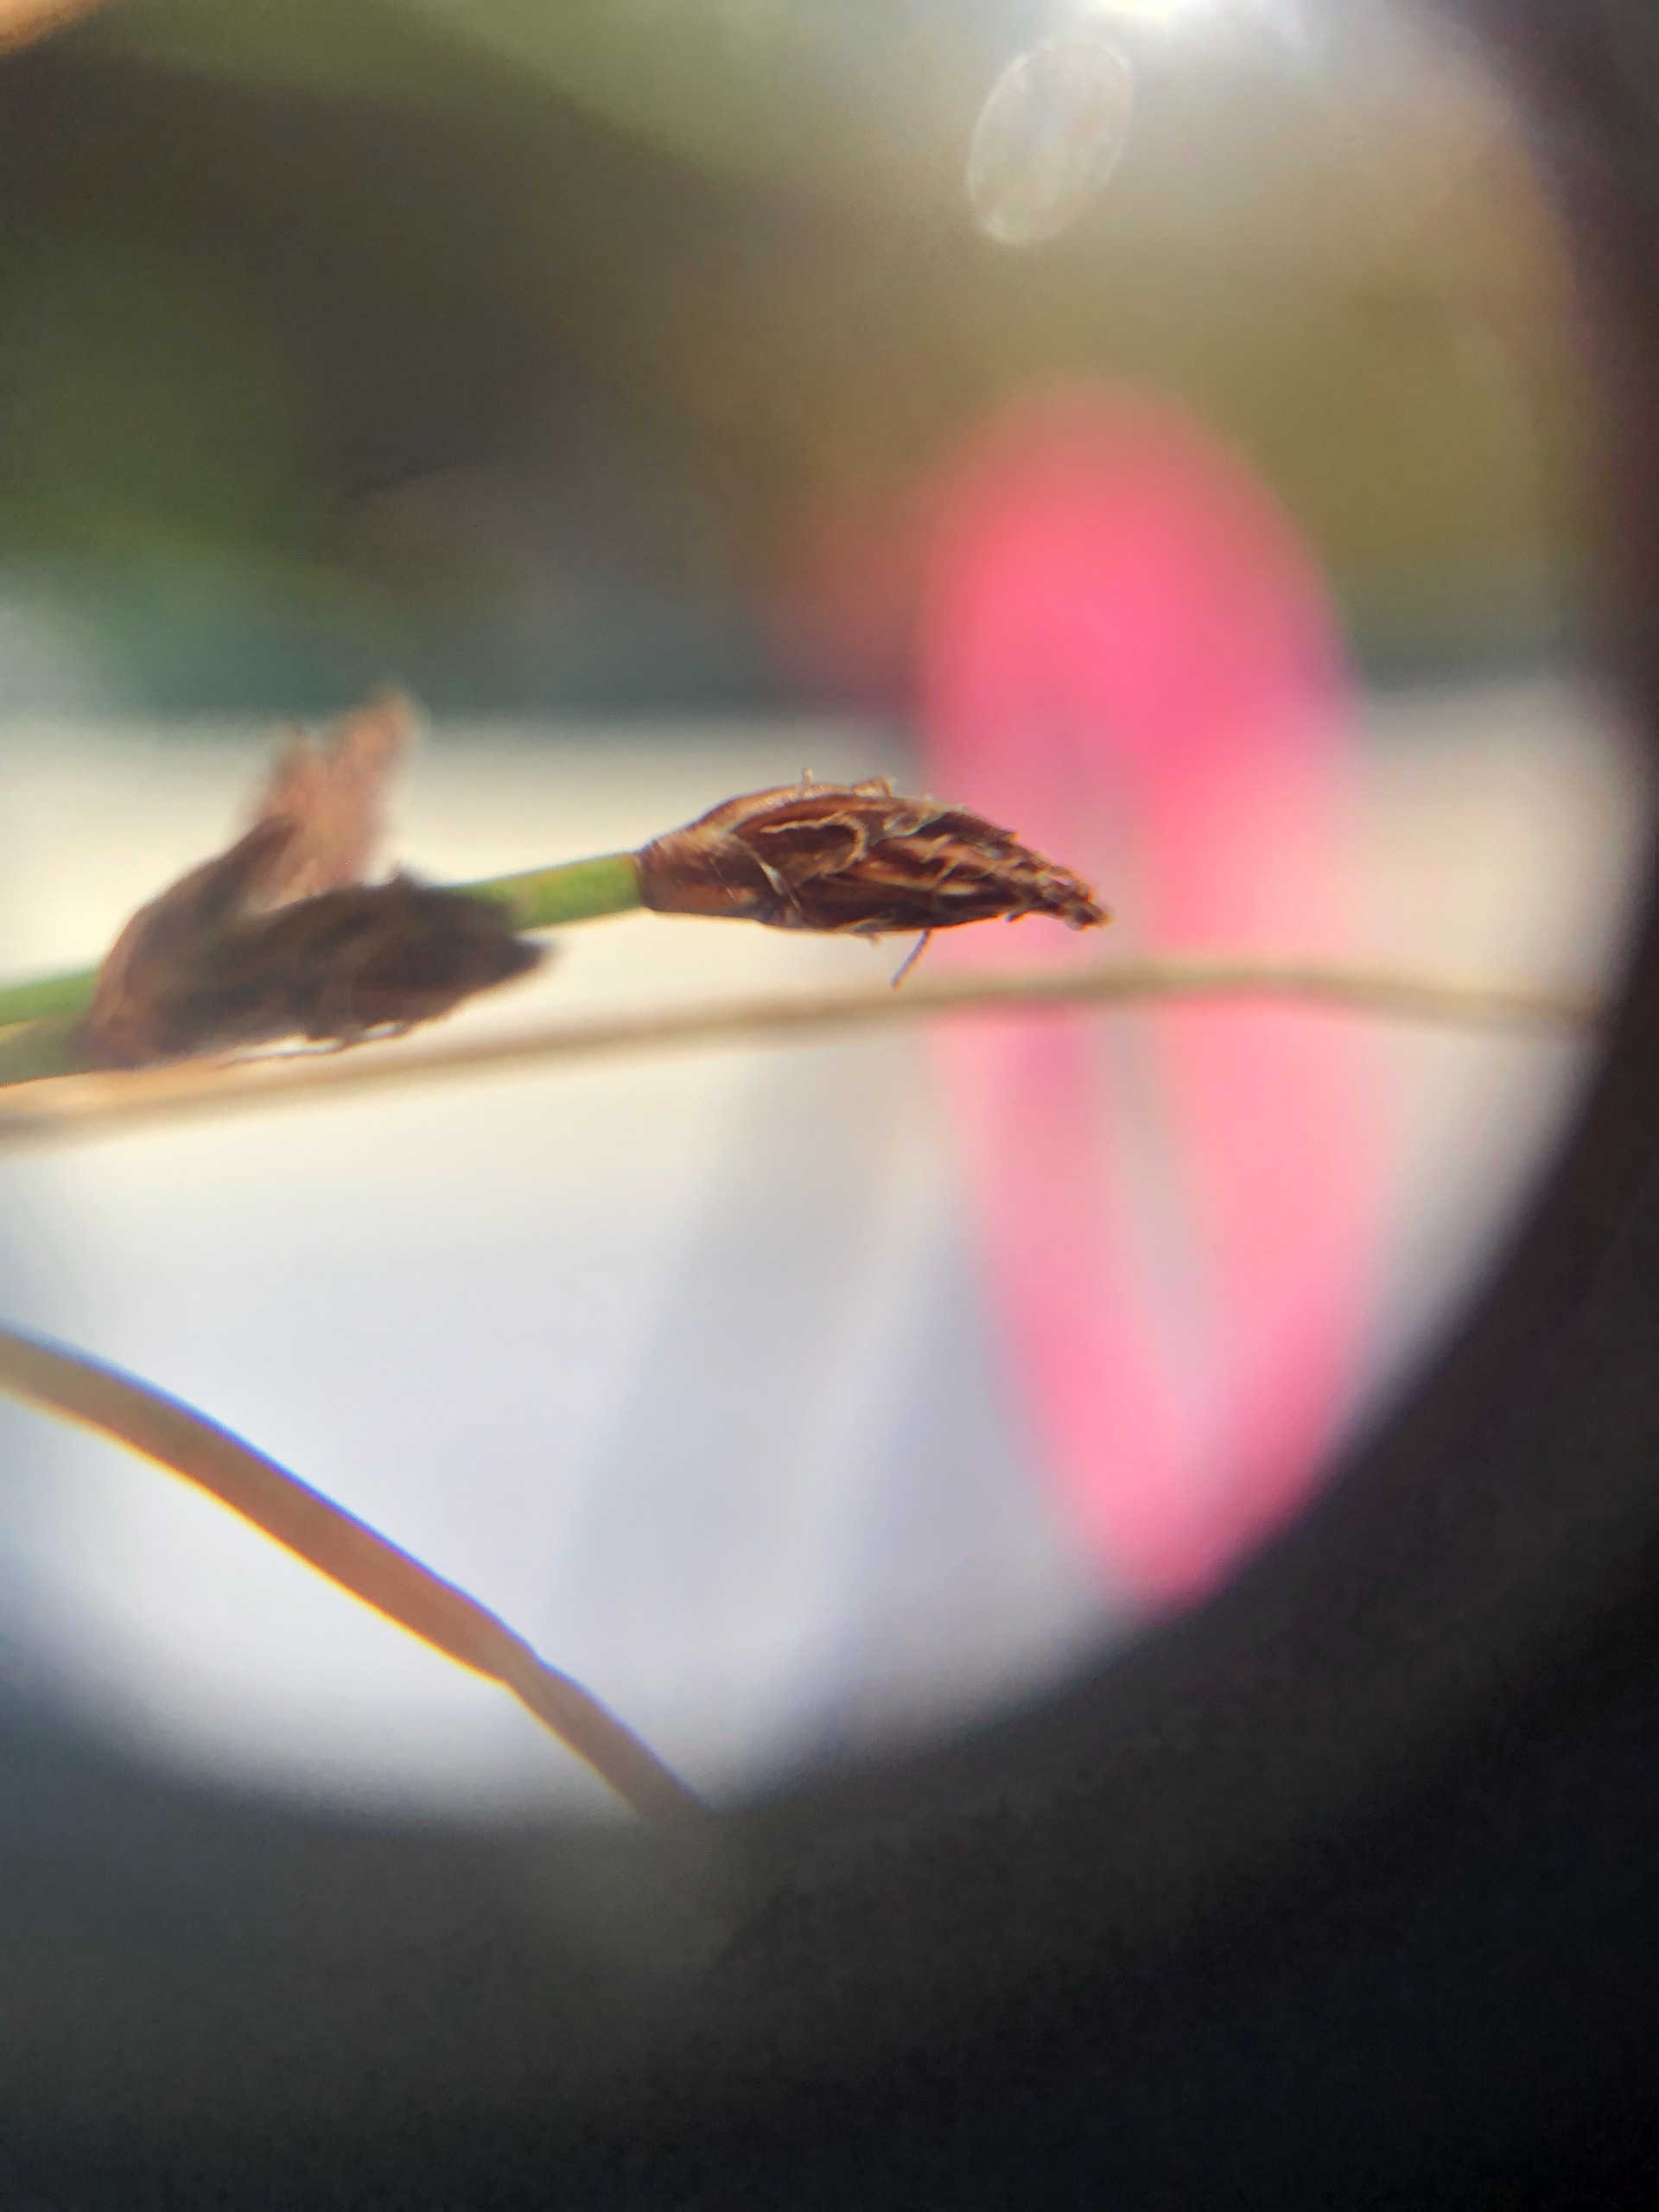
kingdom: Plantae
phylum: Tracheophyta
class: Liliopsida
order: Poales
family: Cyperaceae
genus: Eleocharis
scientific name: Eleocharis palustris
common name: Almindelig sumpstrå
